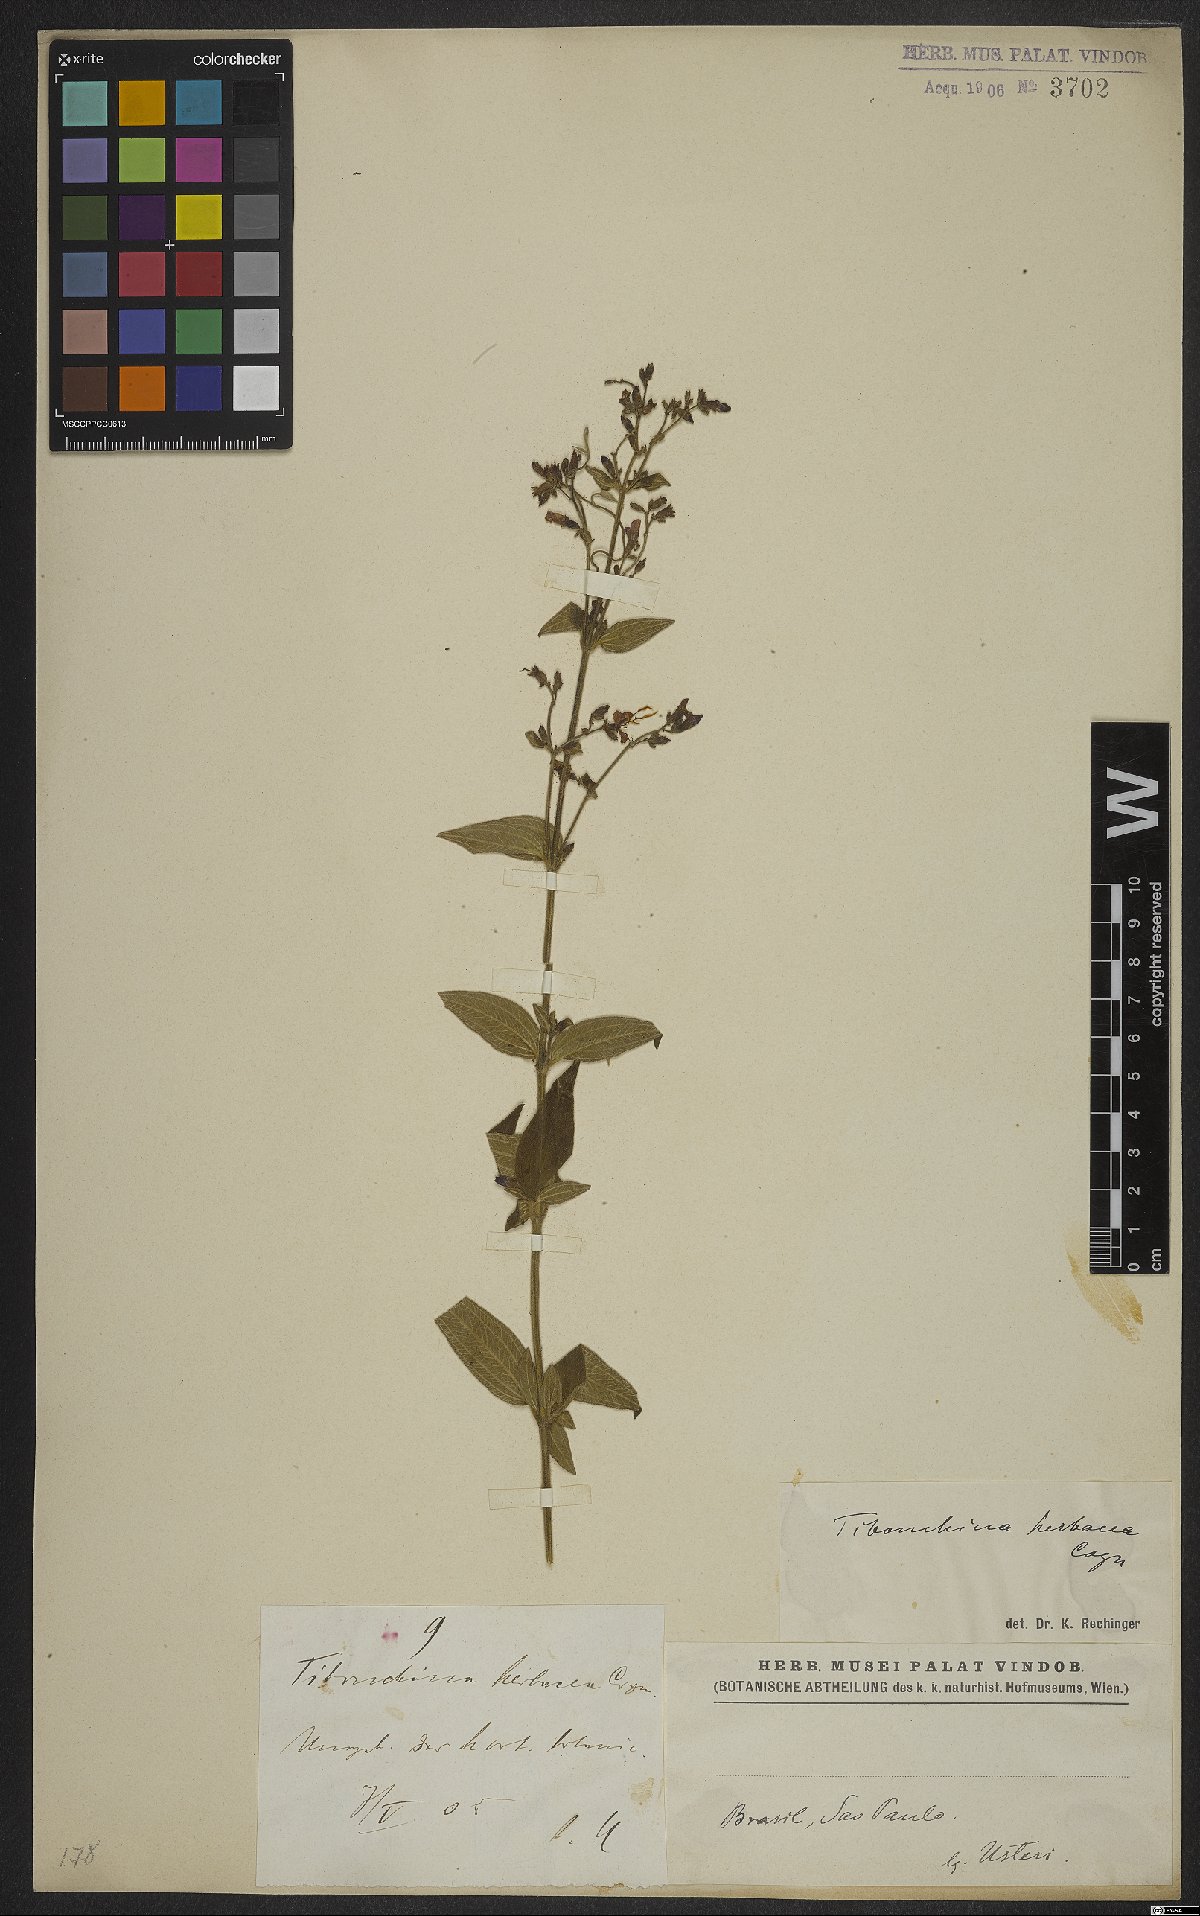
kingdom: Plantae
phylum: Tracheophyta
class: Magnoliopsida
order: Myrtales
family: Melastomataceae
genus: Chaetogastra
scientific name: Chaetogastra herbacea
